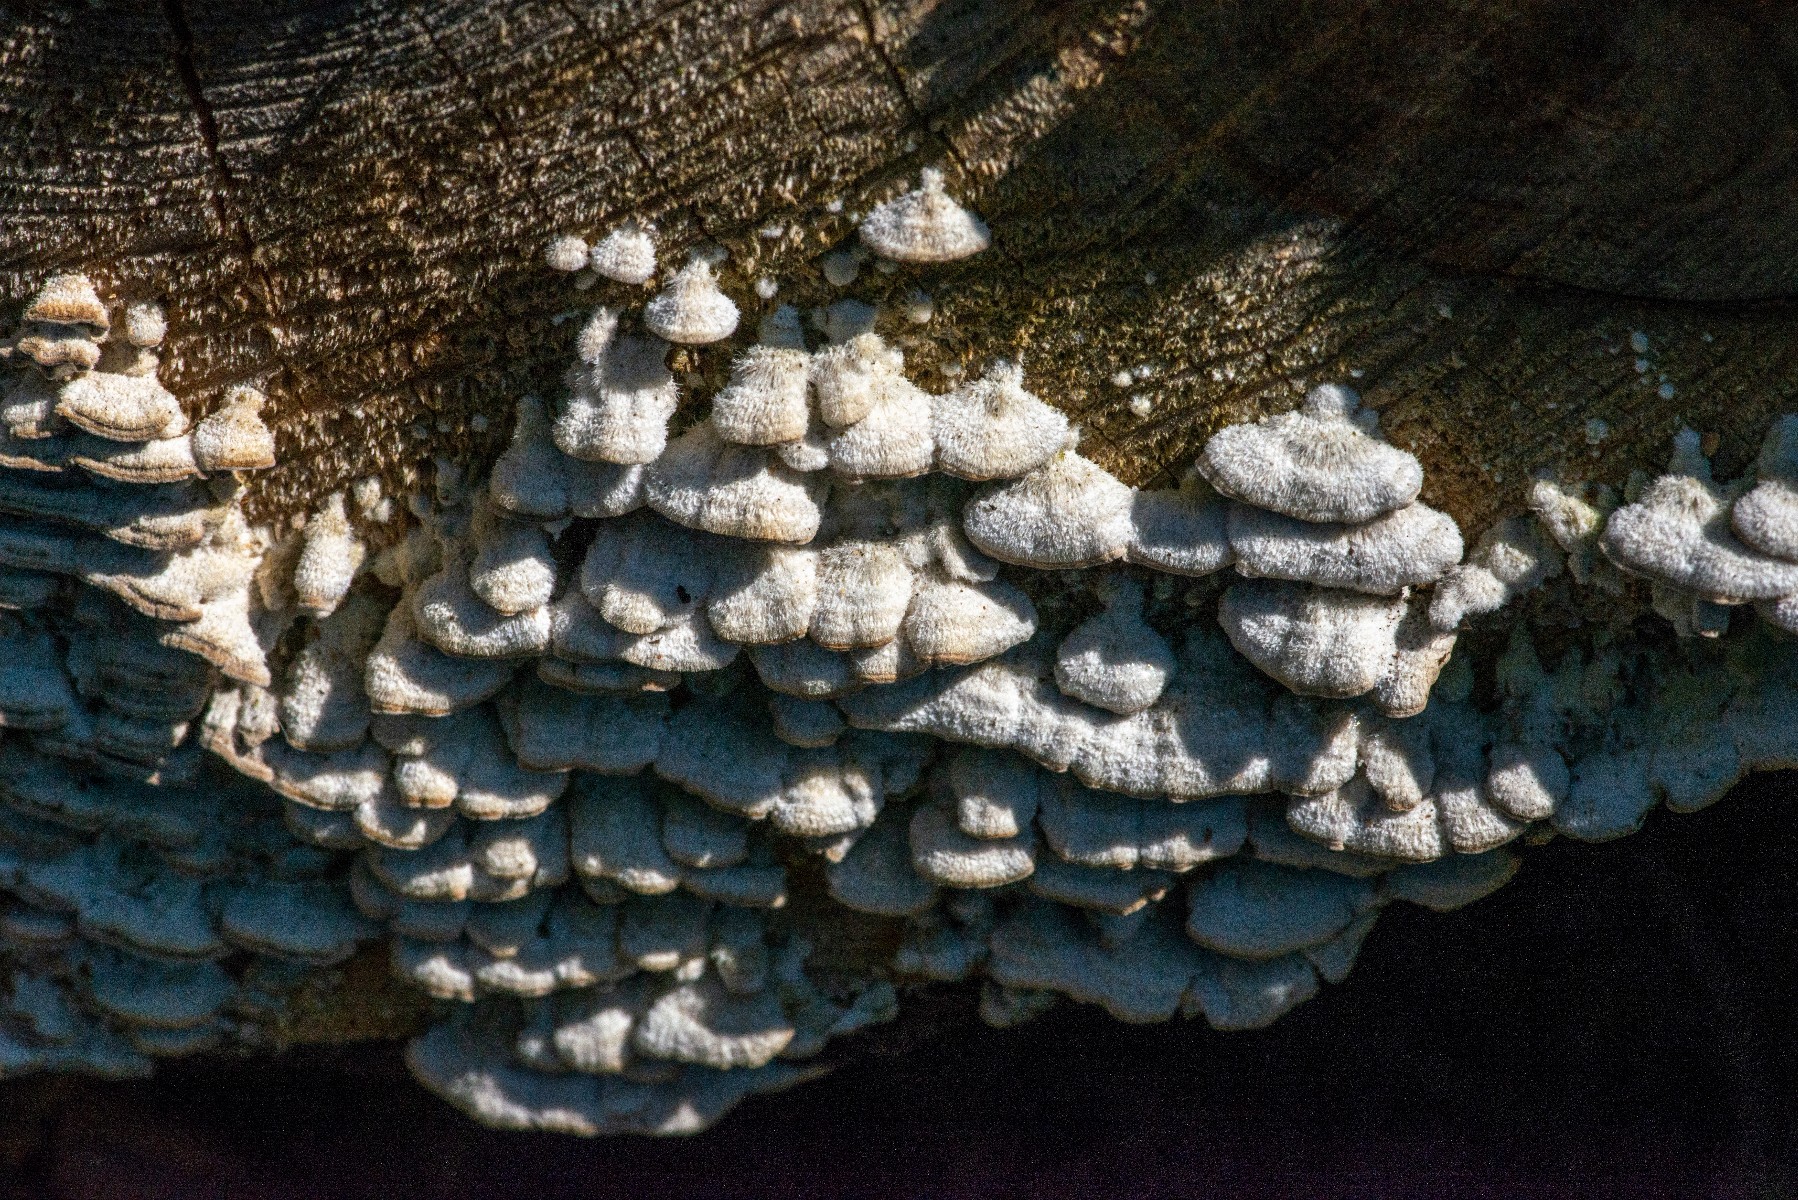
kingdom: Fungi
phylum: Basidiomycota
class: Agaricomycetes
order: Hymenochaetales
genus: Trichaptum
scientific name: Trichaptum abietinum
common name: almindelig violporesvamp
